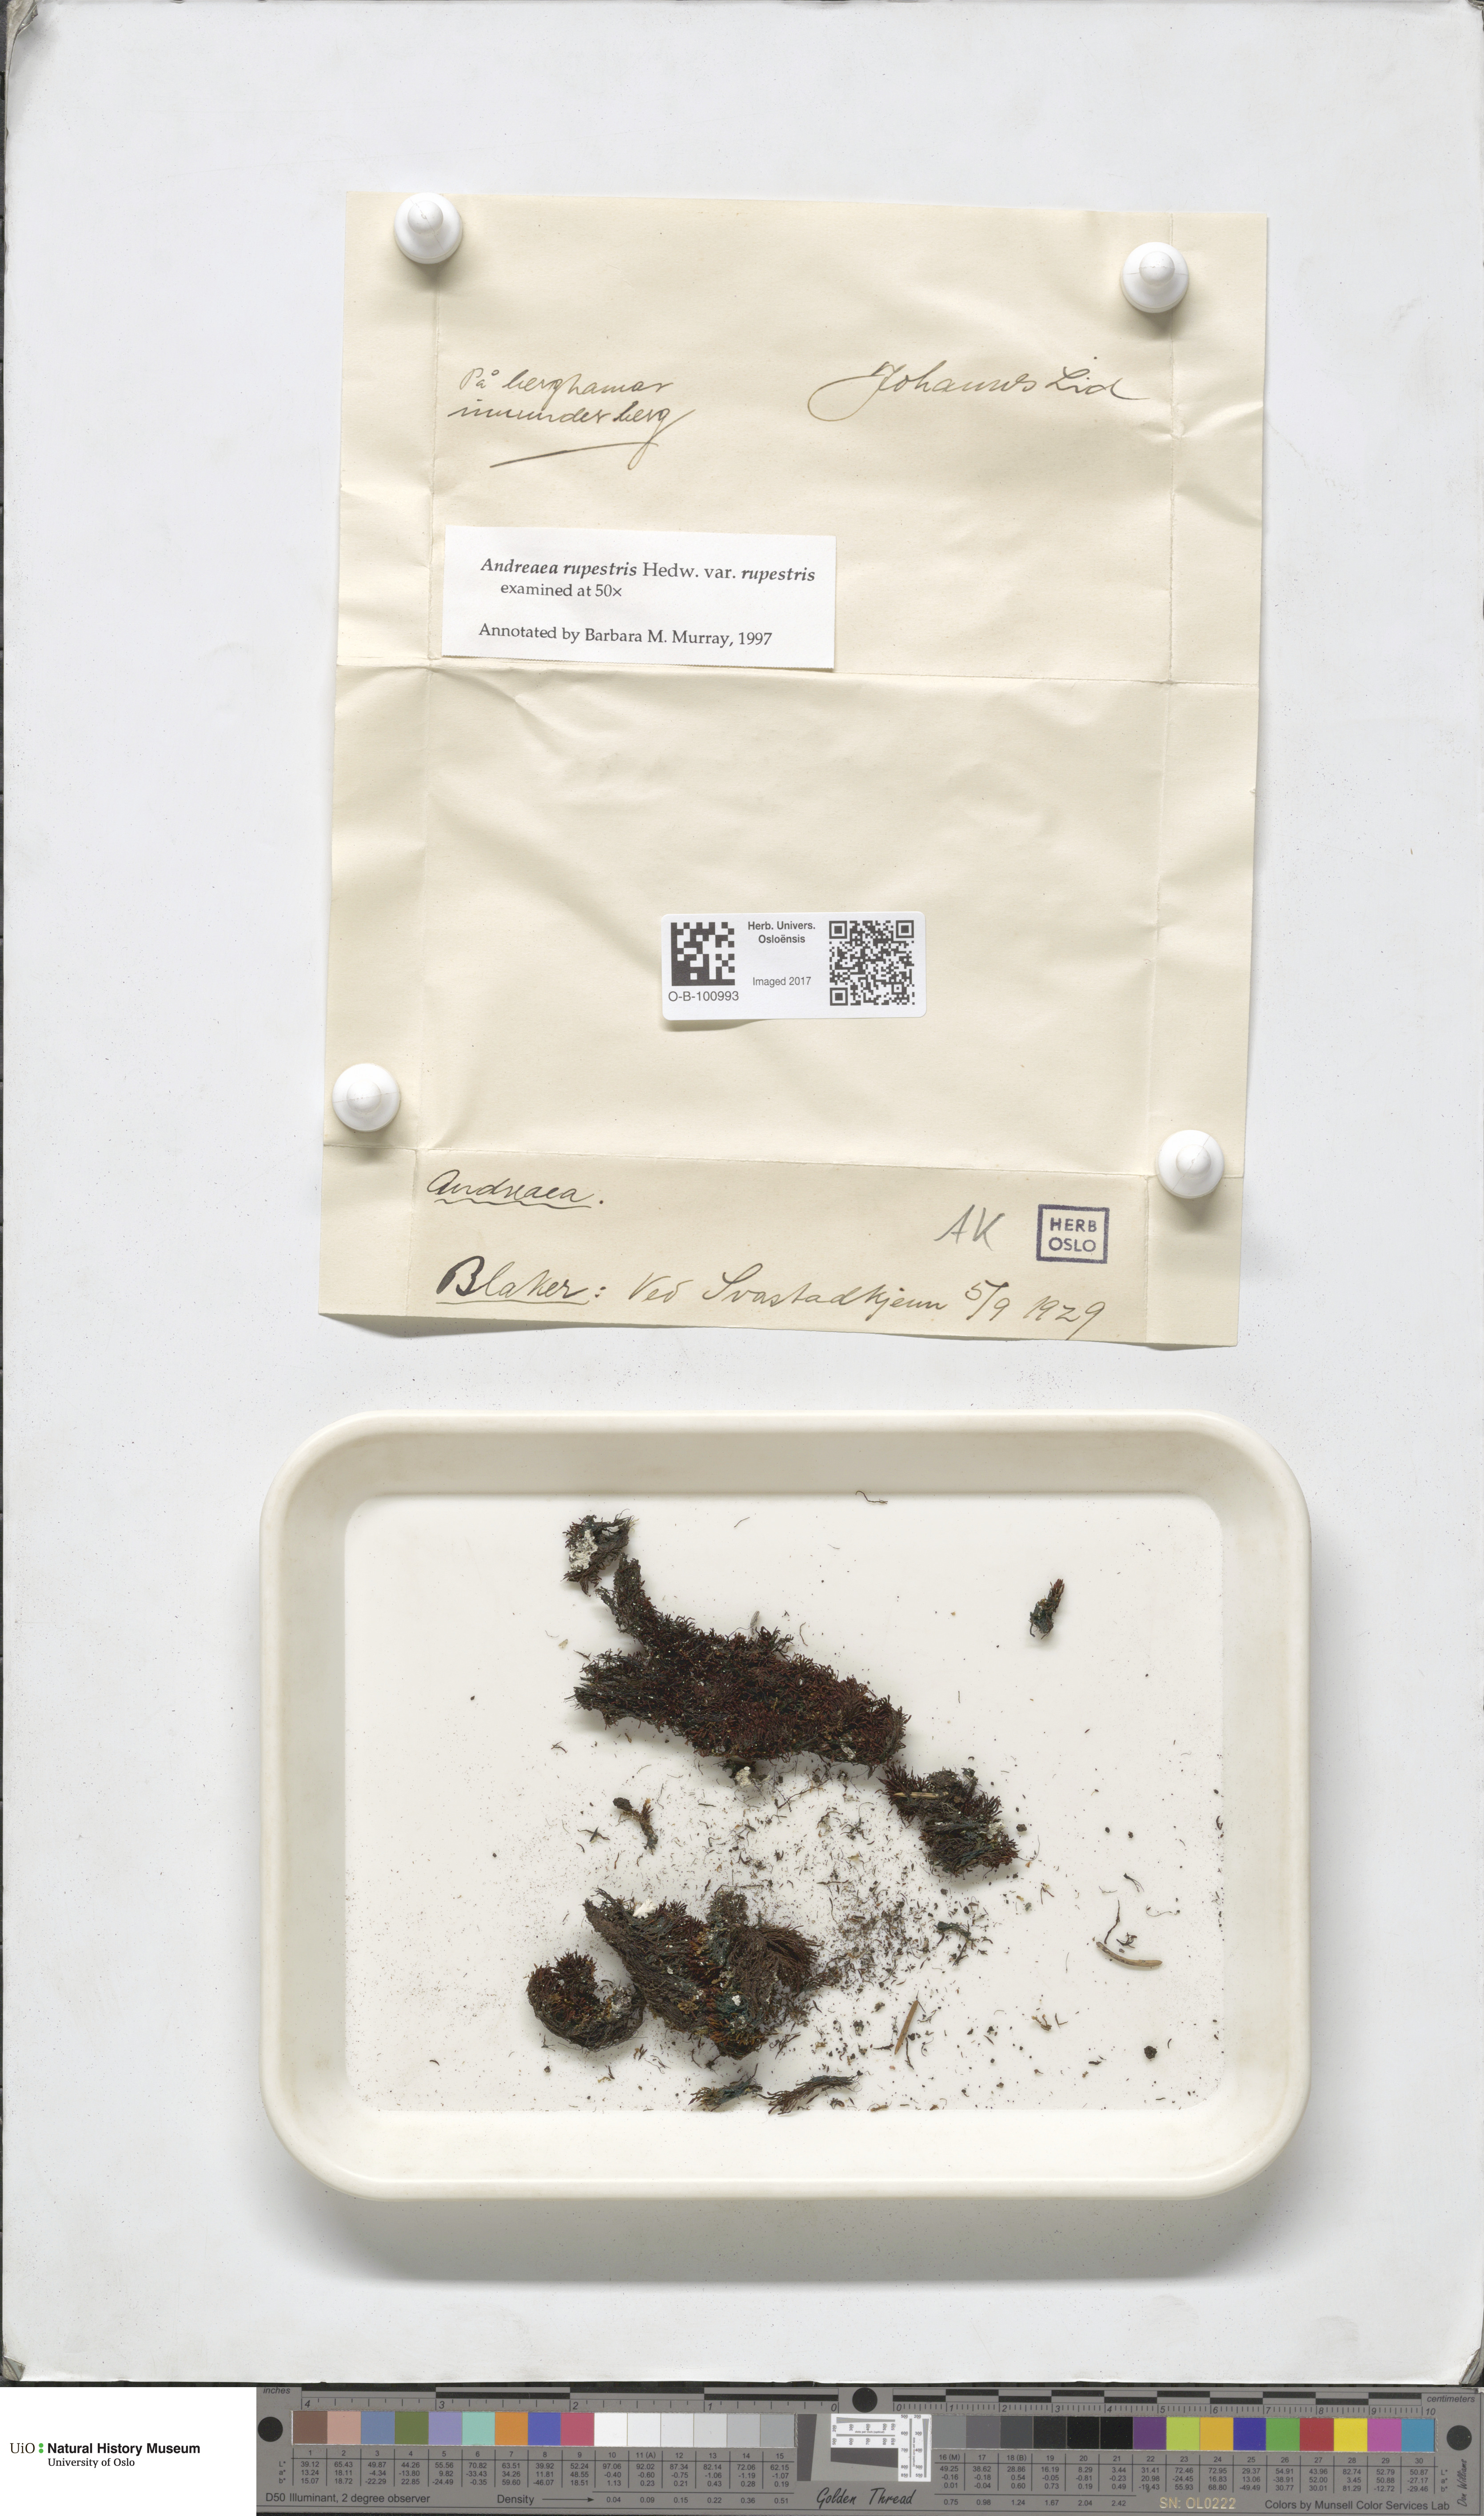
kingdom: Plantae
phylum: Bryophyta
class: Andreaeopsida
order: Andreaeales
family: Andreaeaceae
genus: Andreaea
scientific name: Andreaea rupestris
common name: Black rock moss
